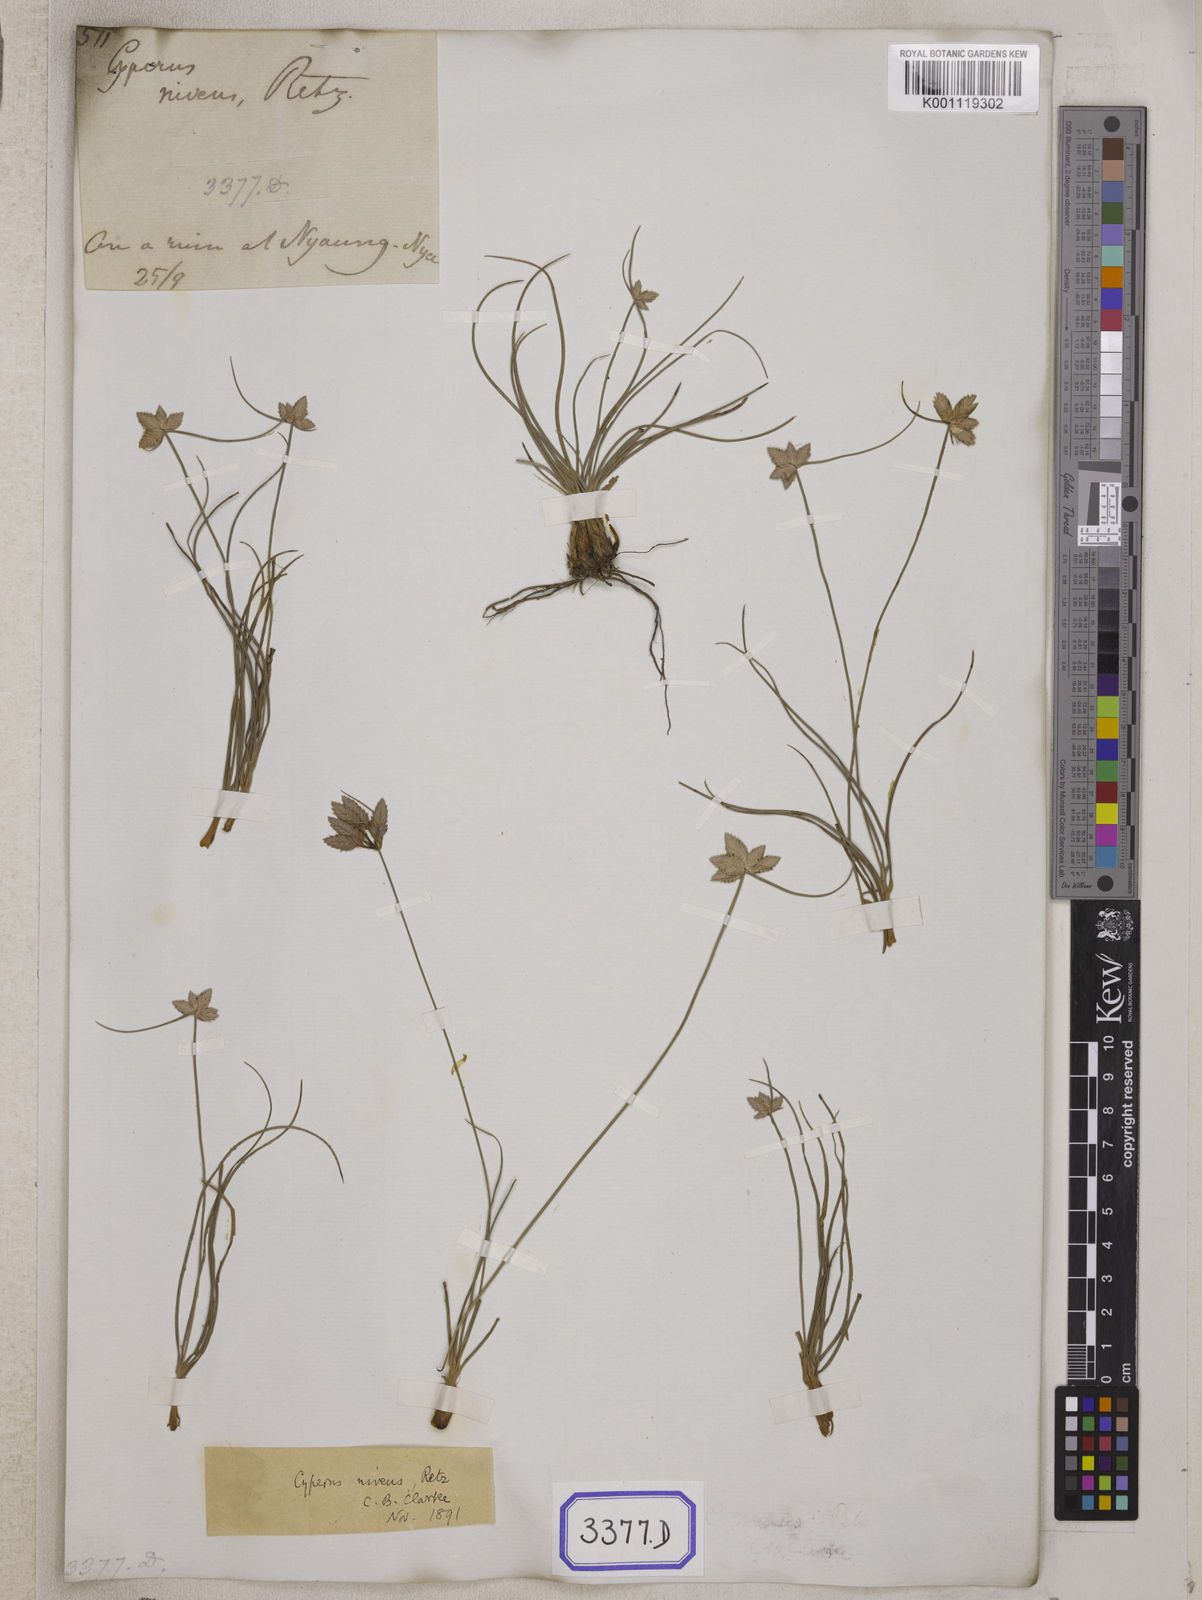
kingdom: Plantae
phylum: Tracheophyta
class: Liliopsida
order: Poales
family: Cyperaceae
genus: Cyperus
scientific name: Cyperus
